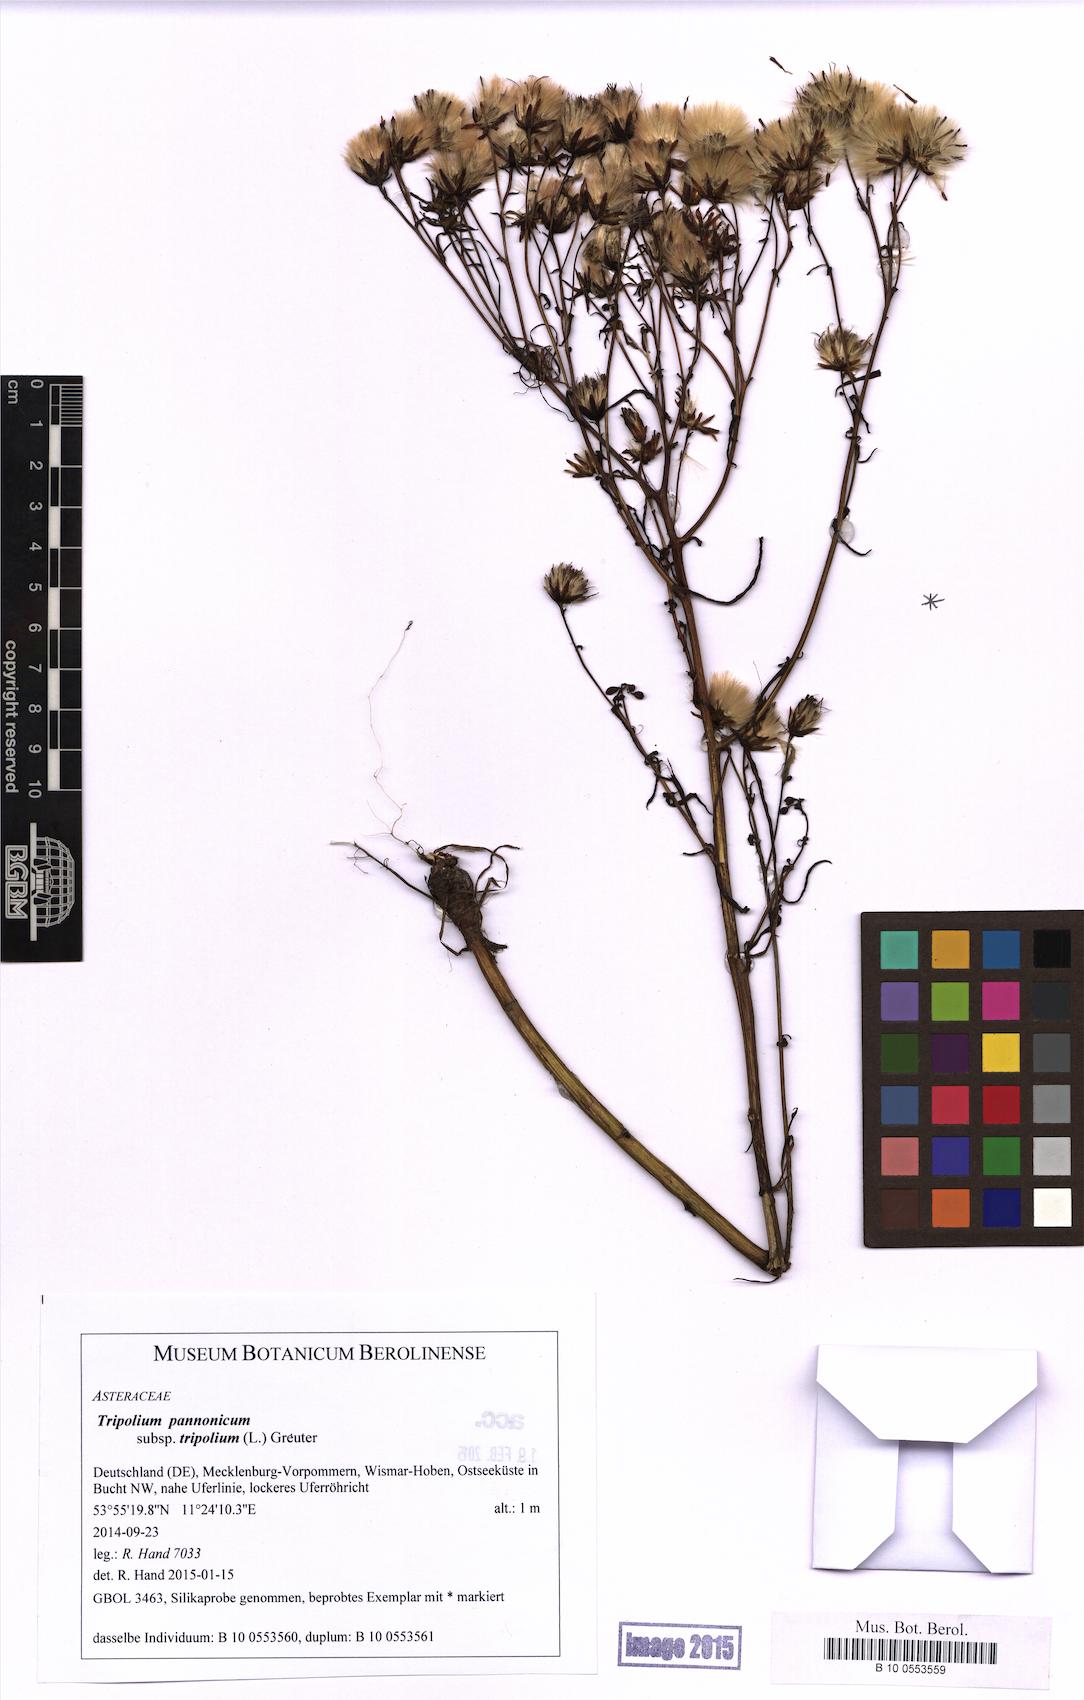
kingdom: Plantae
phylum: Tracheophyta
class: Magnoliopsida
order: Asterales
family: Asteraceae
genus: Tripolium
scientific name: Tripolium pannonicum
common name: Sea aster
